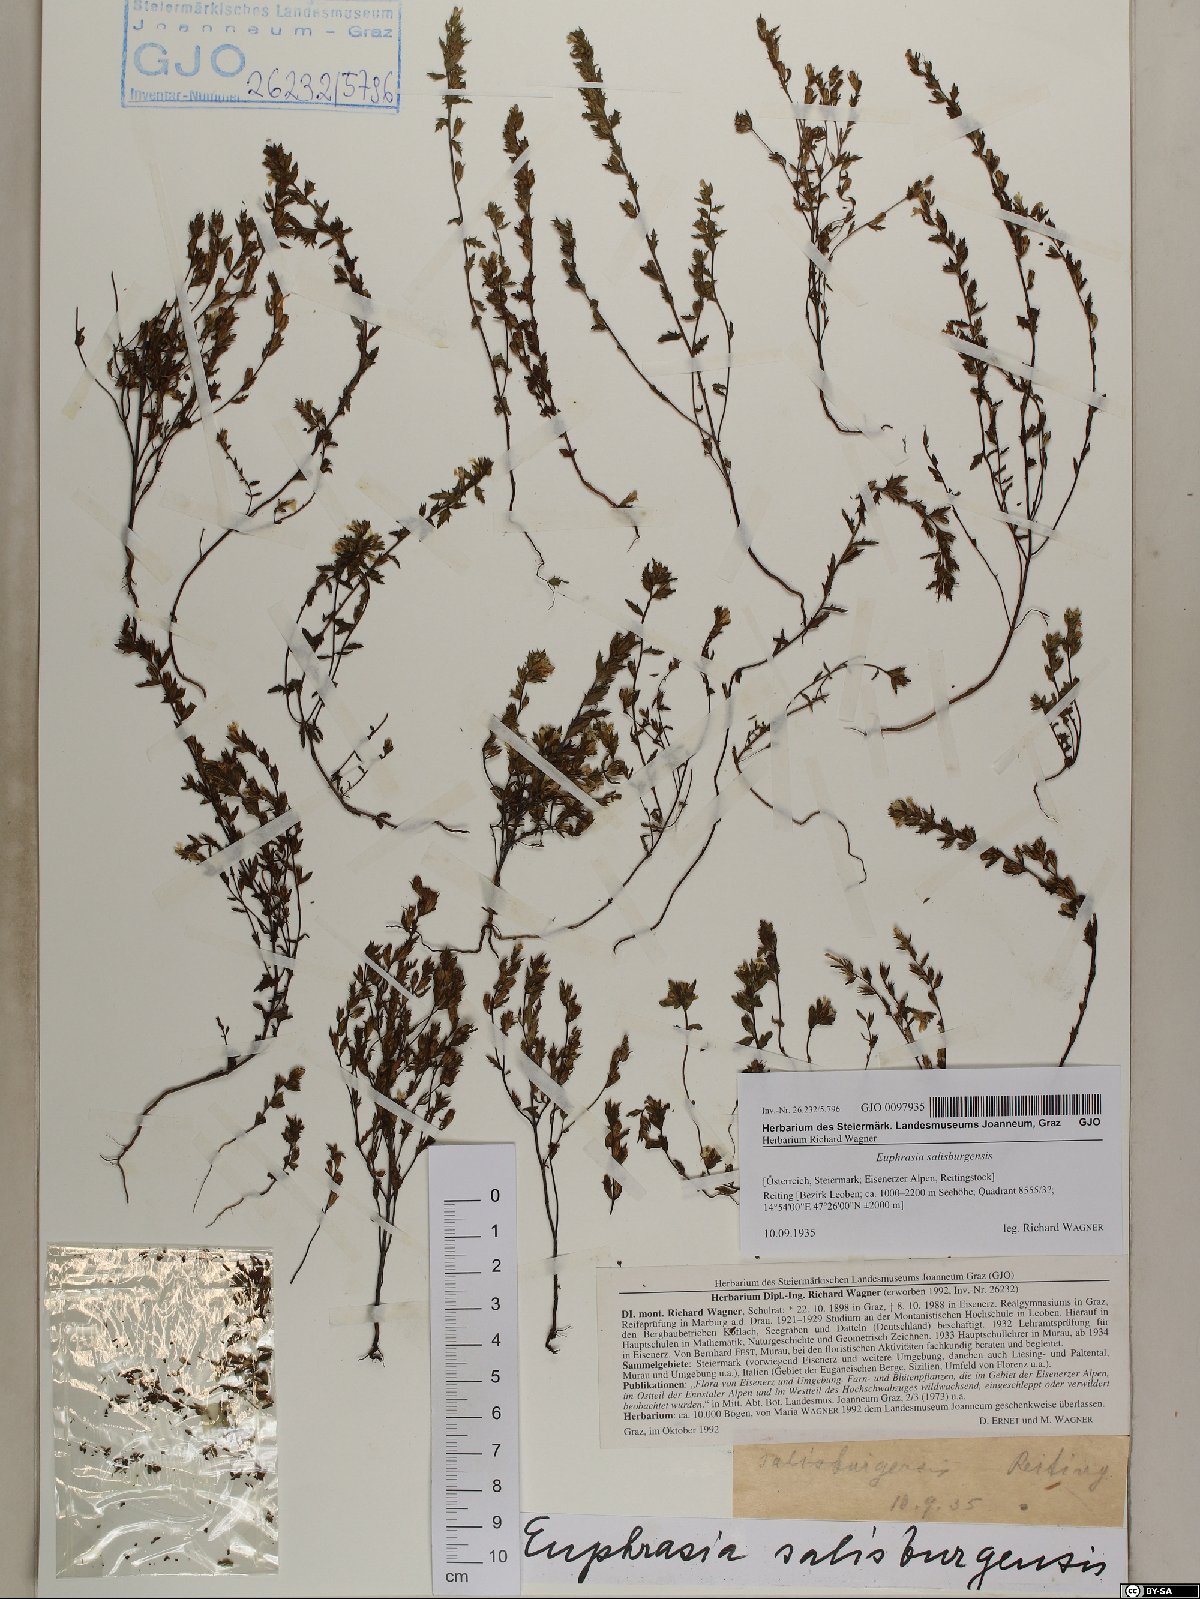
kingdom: Plantae
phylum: Tracheophyta
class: Magnoliopsida
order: Lamiales
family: Orobanchaceae
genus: Euphrasia
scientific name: Euphrasia salisburgensis
